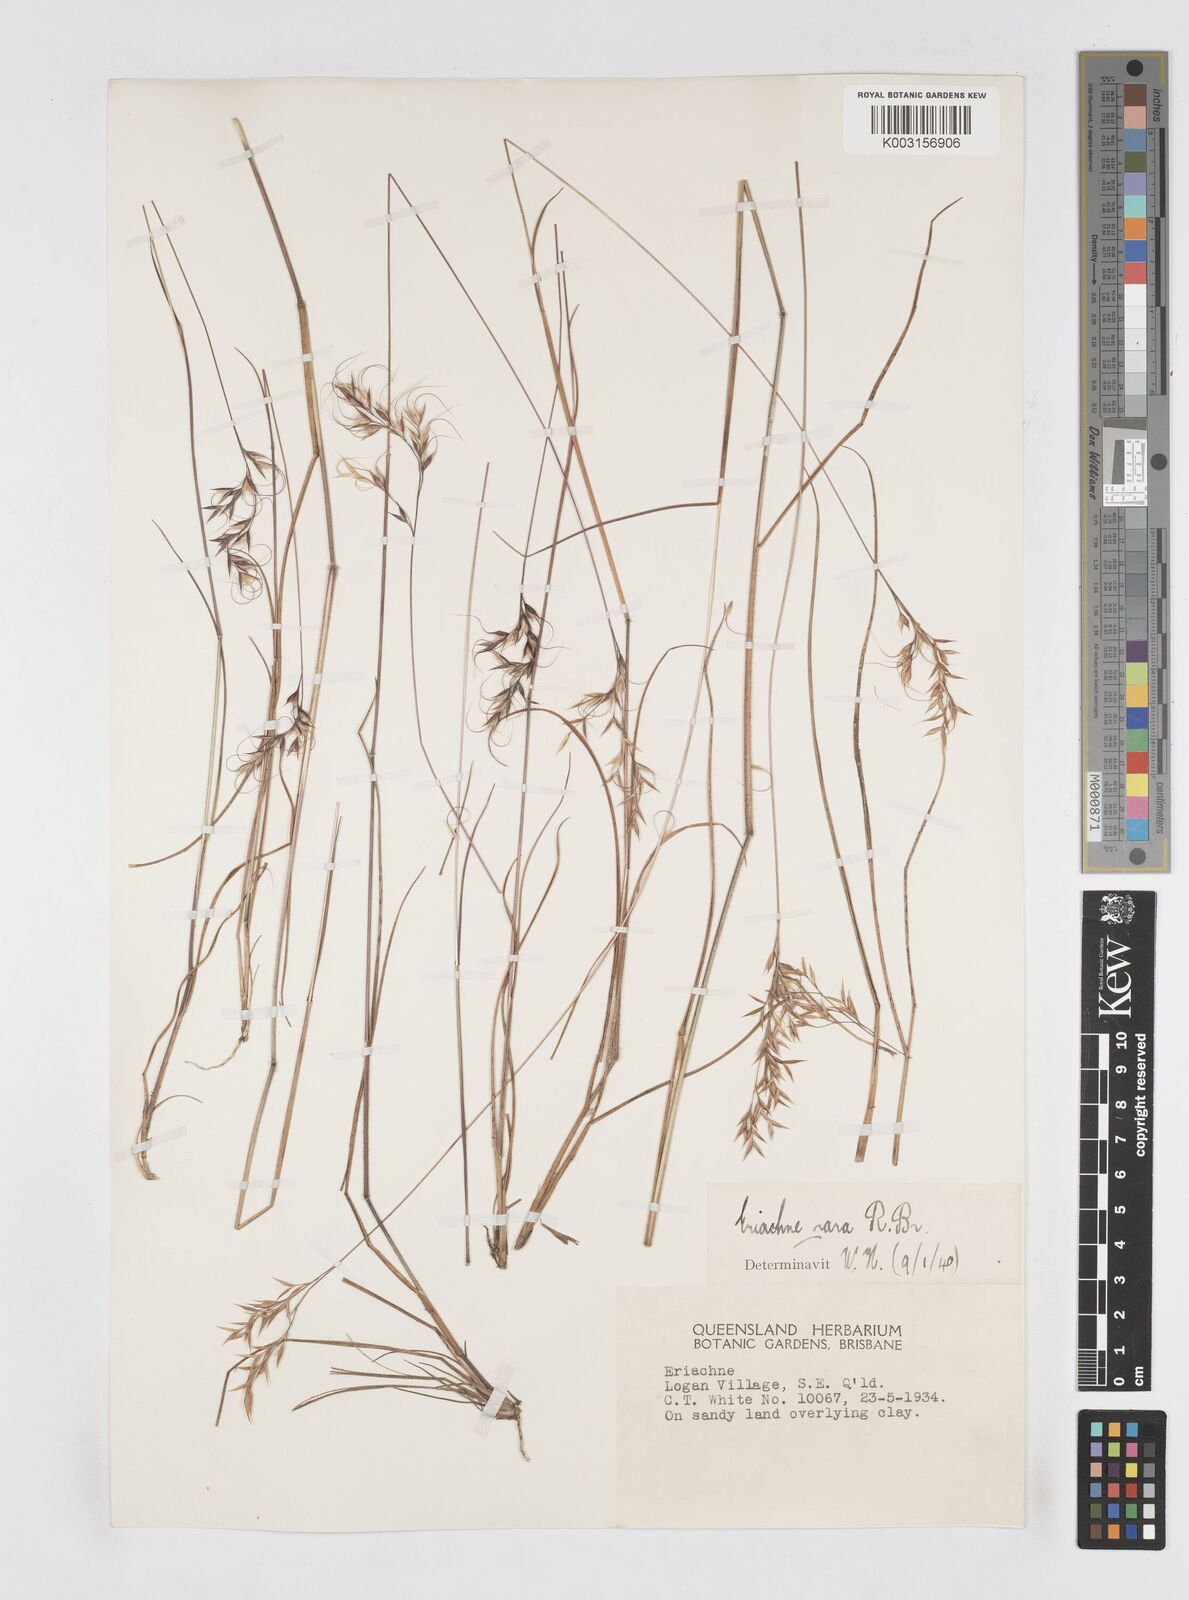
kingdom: Plantae
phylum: Tracheophyta
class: Liliopsida
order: Poales
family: Poaceae
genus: Eriachne
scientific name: Eriachne rara
